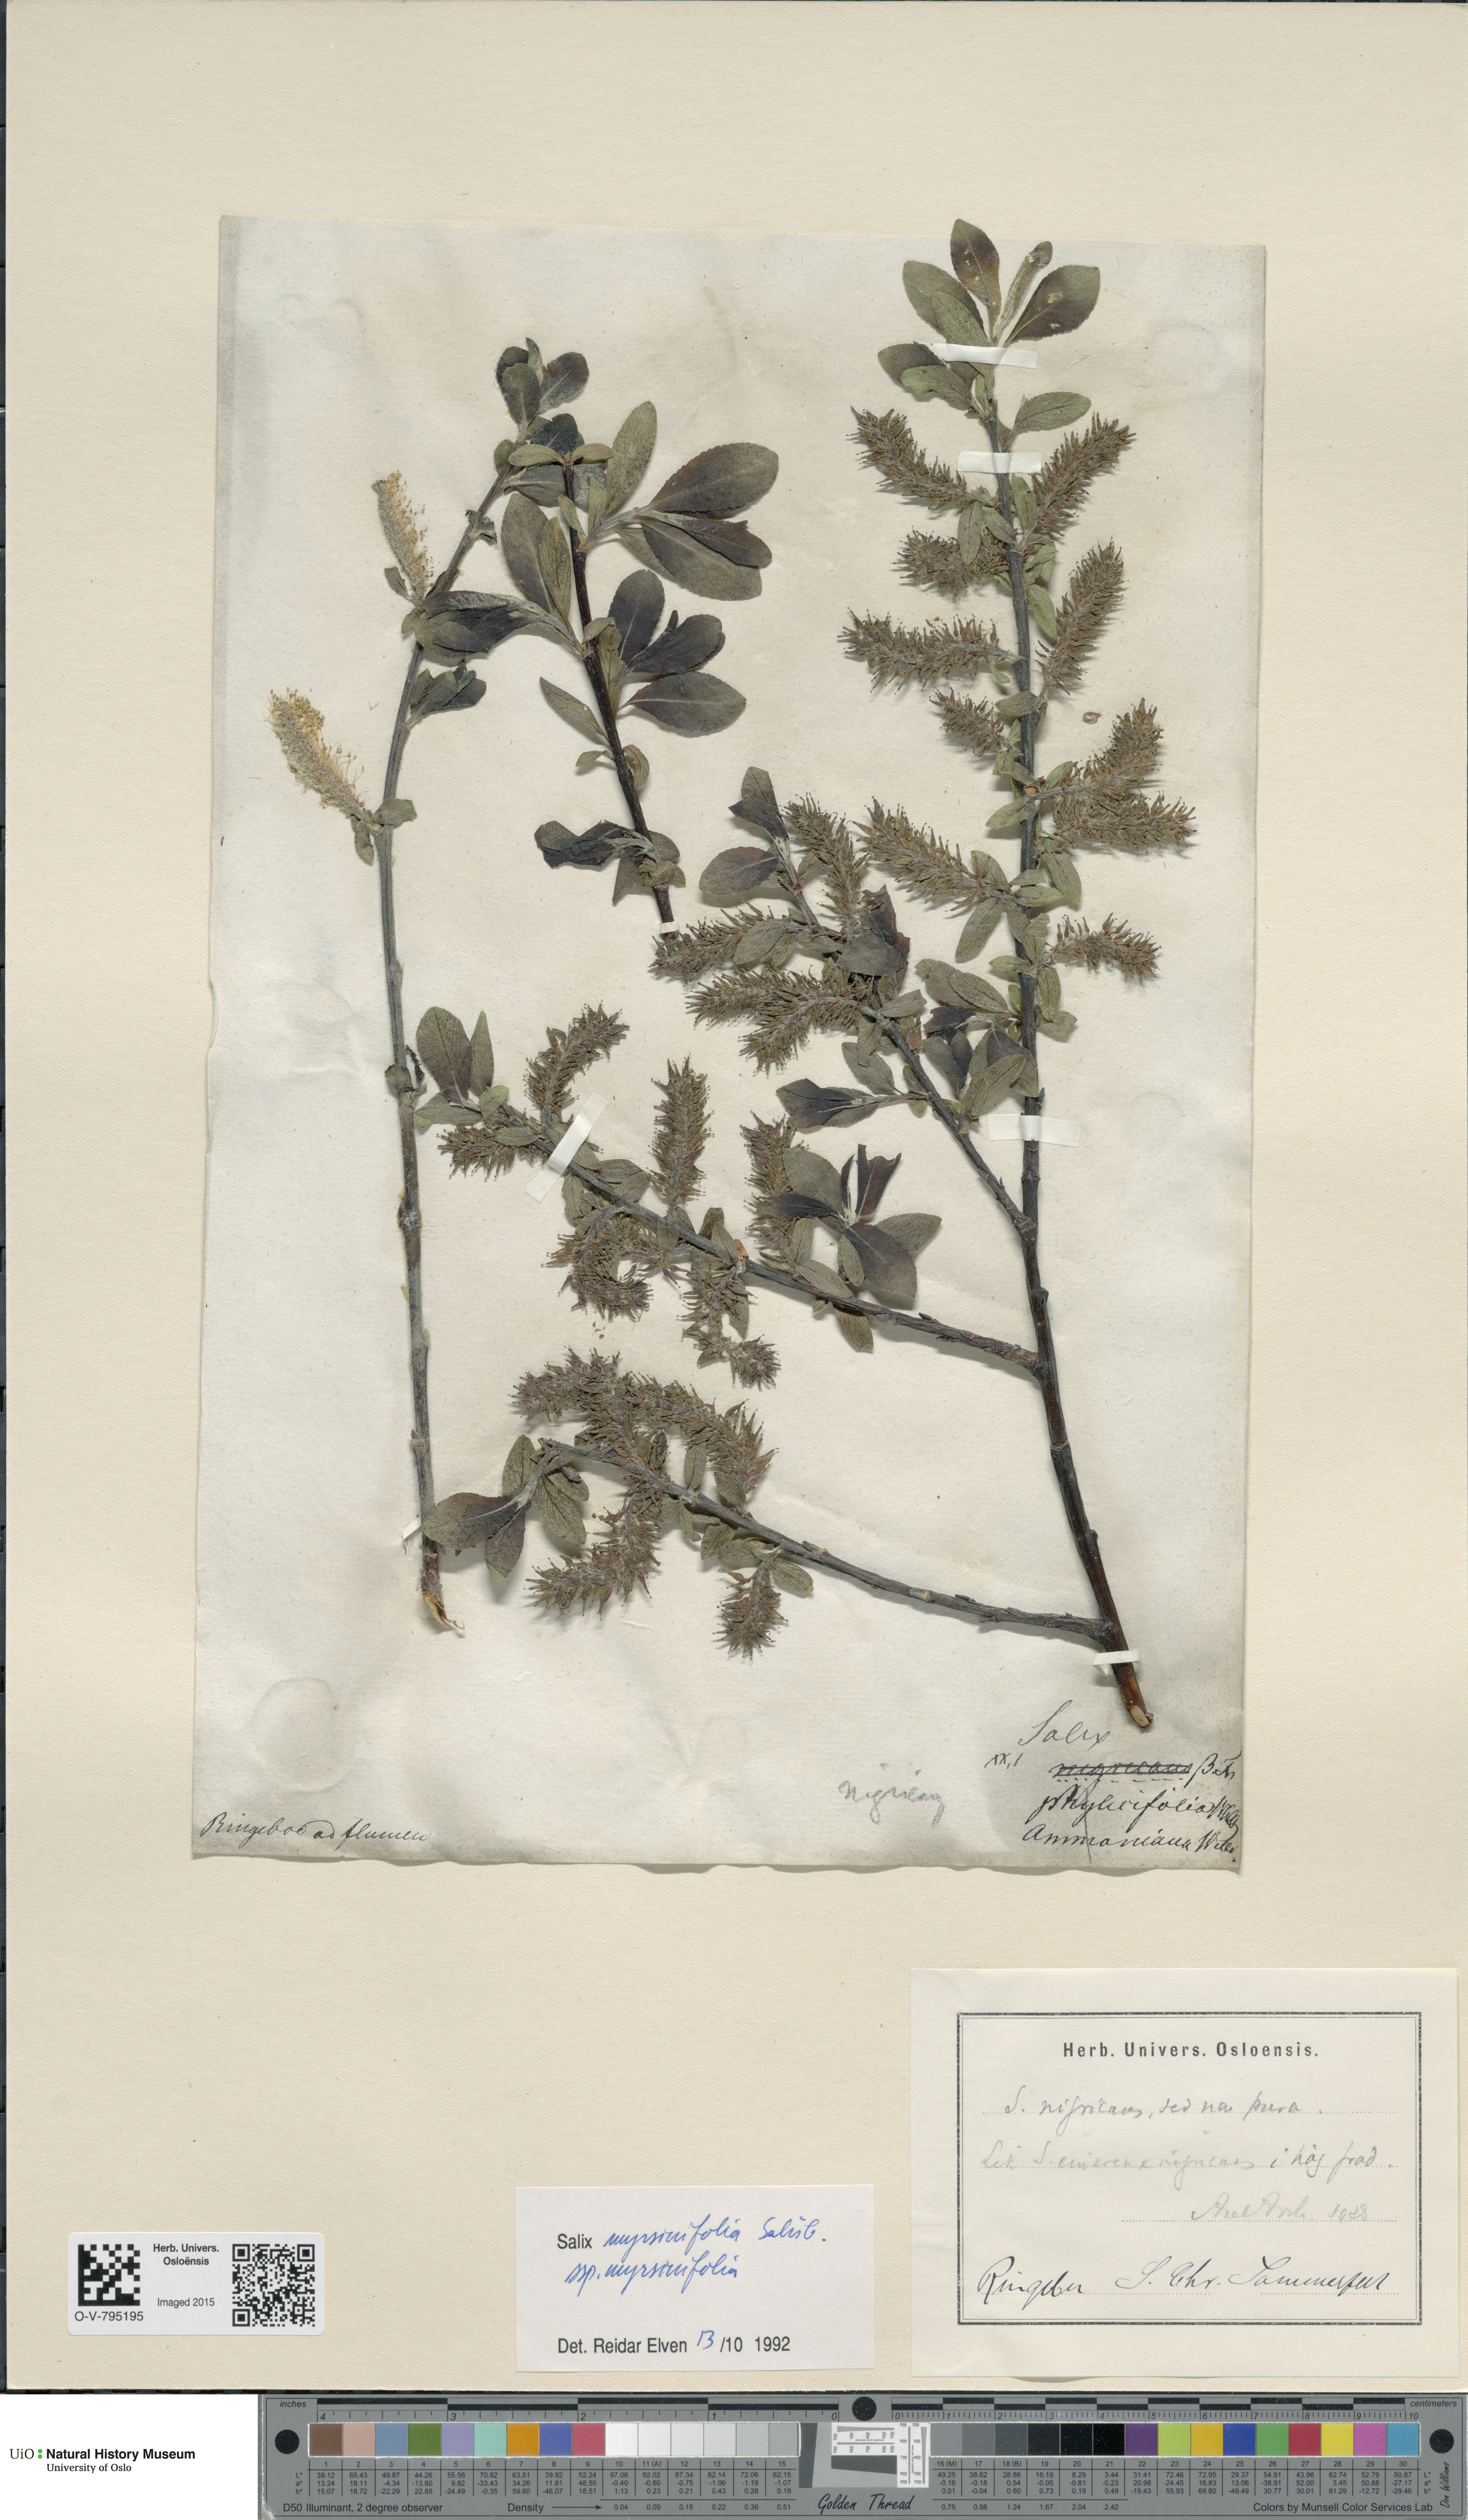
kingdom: Plantae
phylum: Tracheophyta
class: Magnoliopsida
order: Malpighiales
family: Salicaceae
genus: Salix
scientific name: Salix myrsinifolia
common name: Dark-leaved willow
